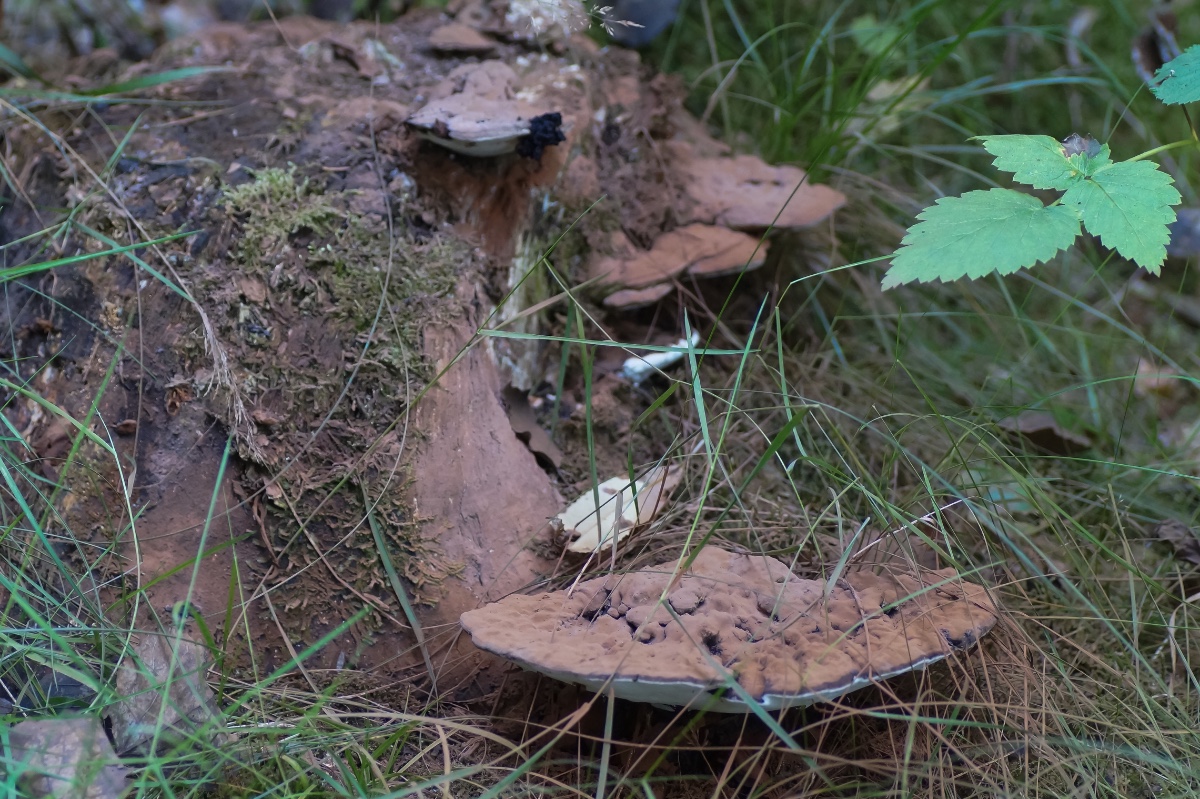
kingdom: Fungi
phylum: Basidiomycota
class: Agaricomycetes
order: Polyporales
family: Polyporaceae
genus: Ganoderma
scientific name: Ganoderma applanatum
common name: flad lakporesvamp
